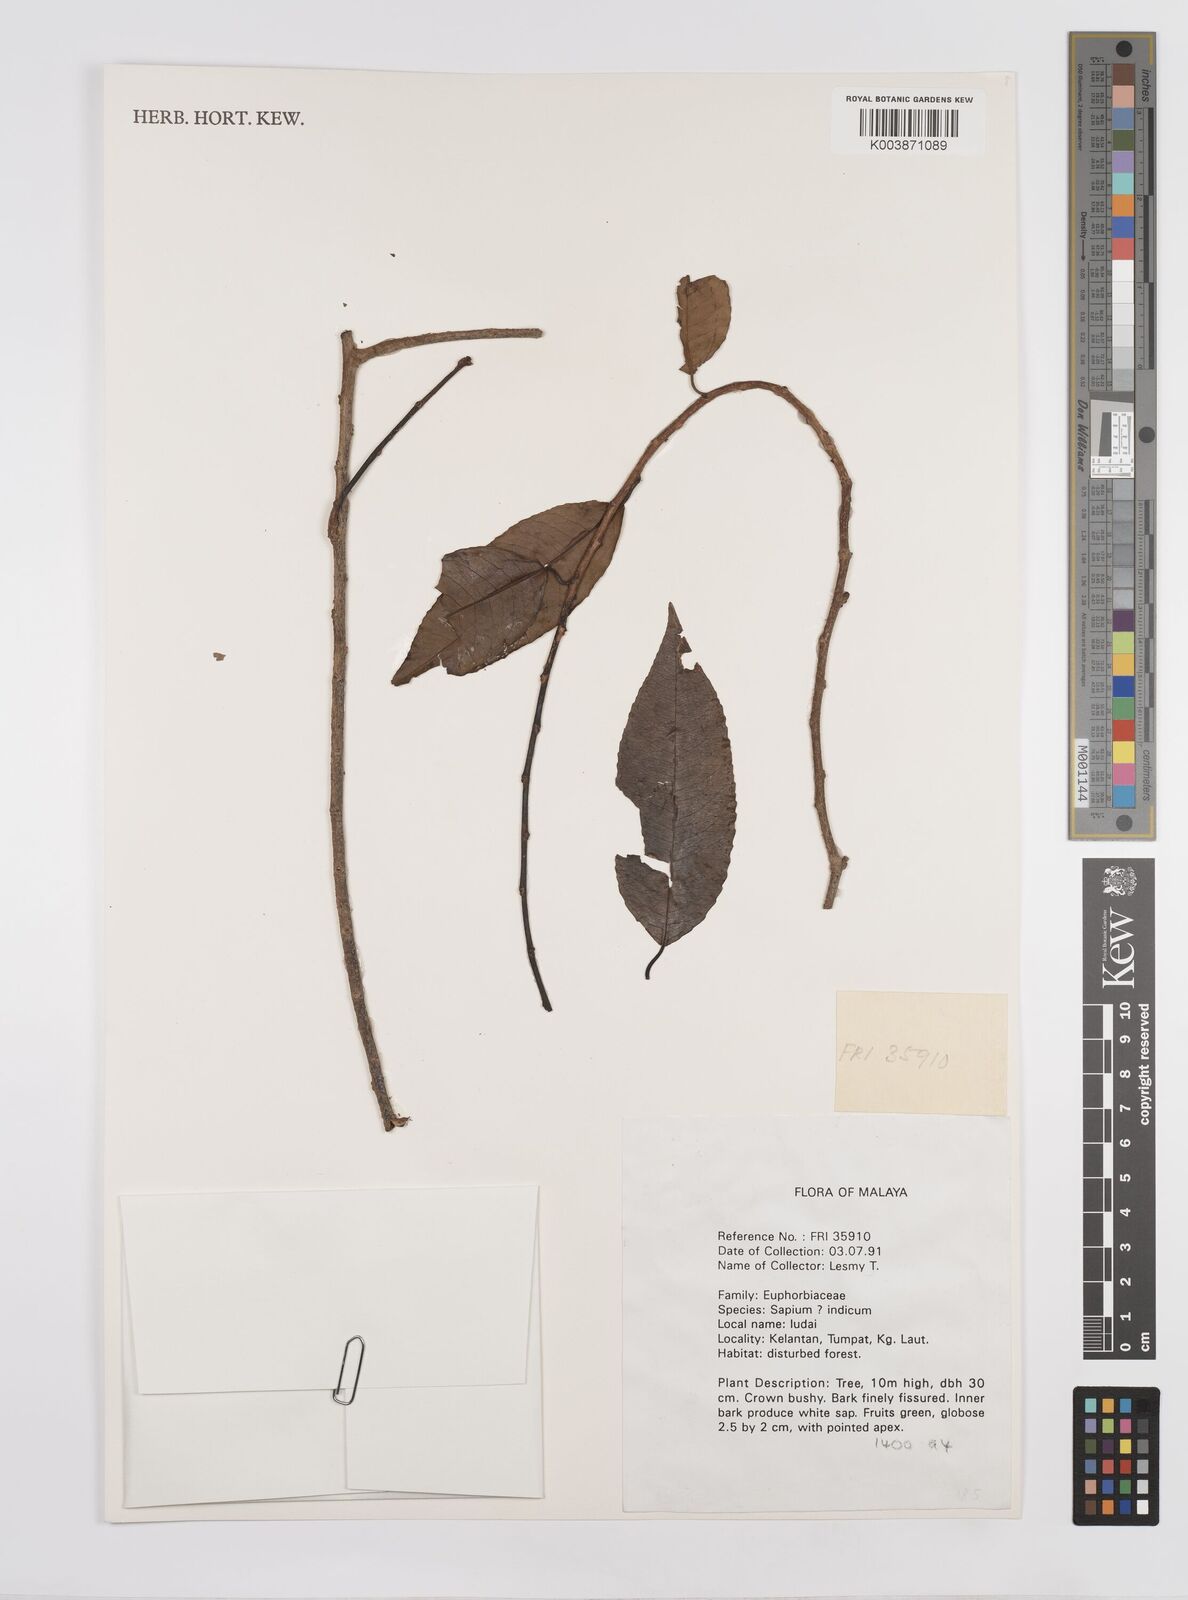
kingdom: Plantae
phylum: Tracheophyta
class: Magnoliopsida
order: Malpighiales
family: Euphorbiaceae
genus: Triadica
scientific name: Triadica cochinchinensis
